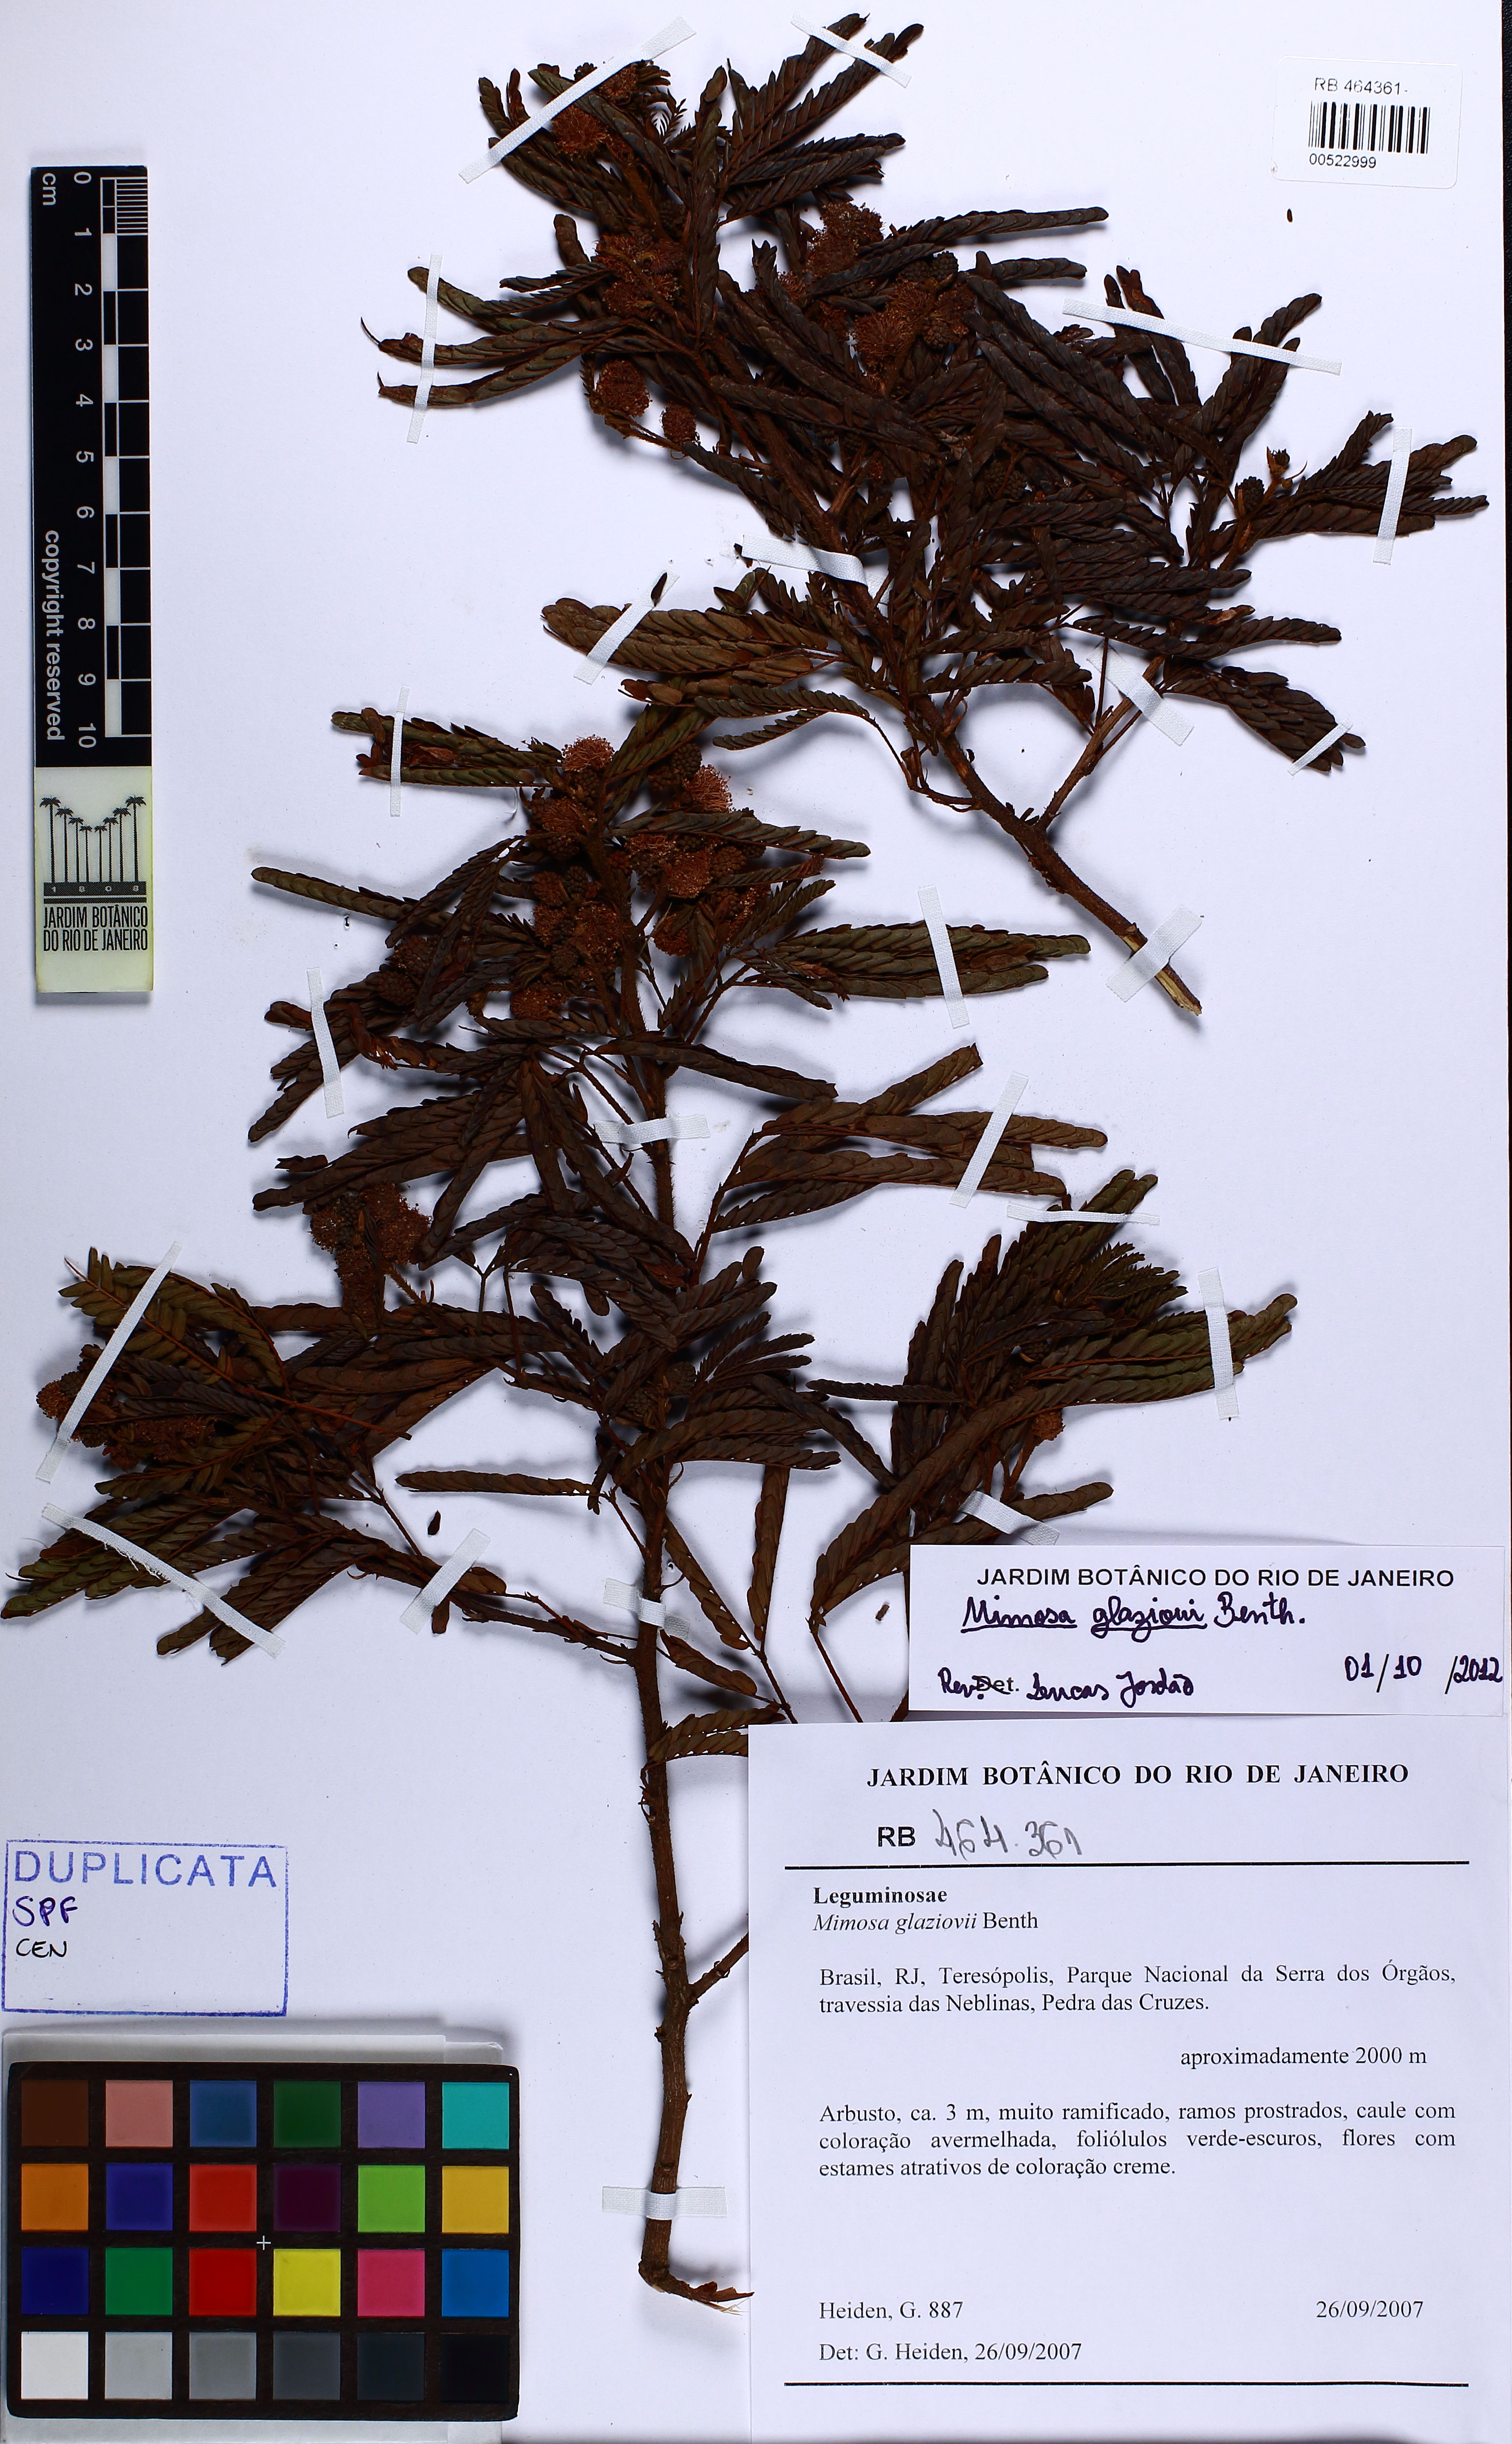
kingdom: Plantae
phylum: Tracheophyta
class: Magnoliopsida
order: Fabales
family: Fabaceae
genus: Mimosa
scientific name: Mimosa glaziovii
